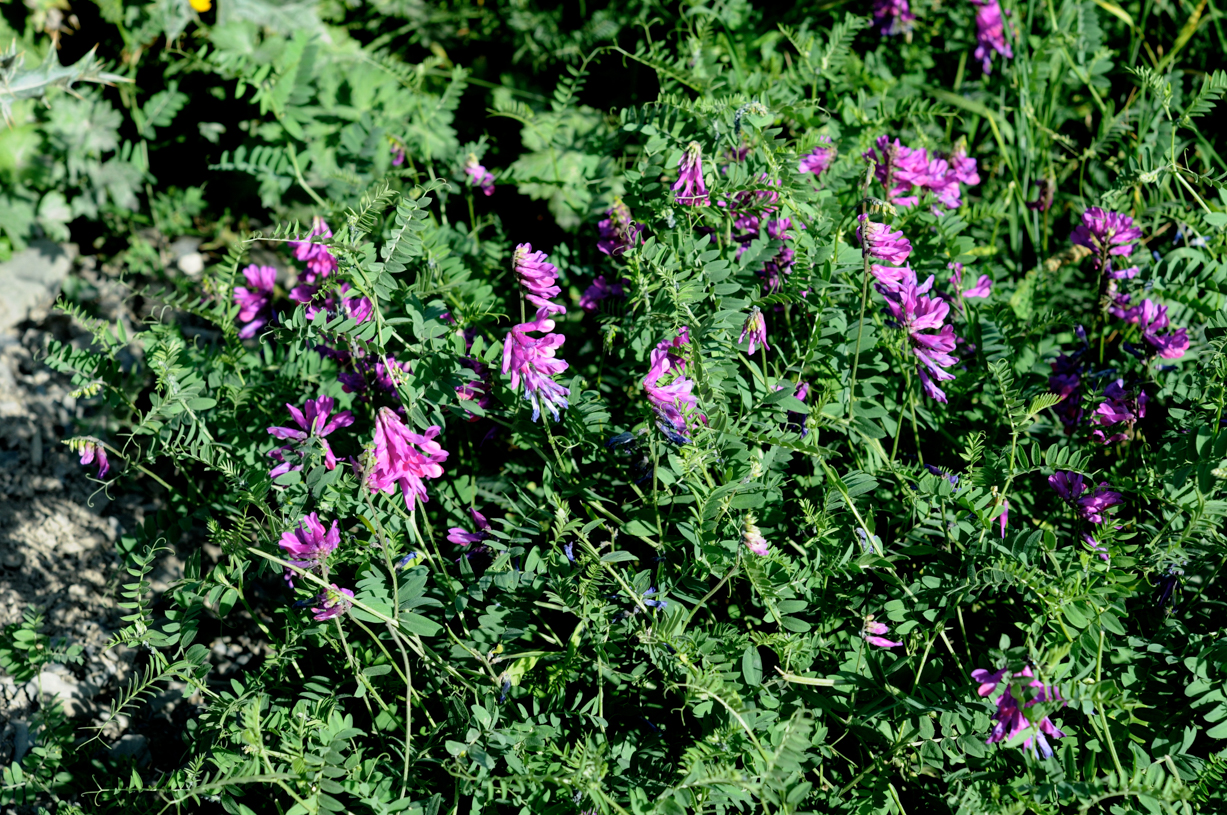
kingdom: Plantae
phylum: Tracheophyta
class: Magnoliopsida
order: Fabales
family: Fabaceae
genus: Vicia
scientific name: Vicia alpestris
